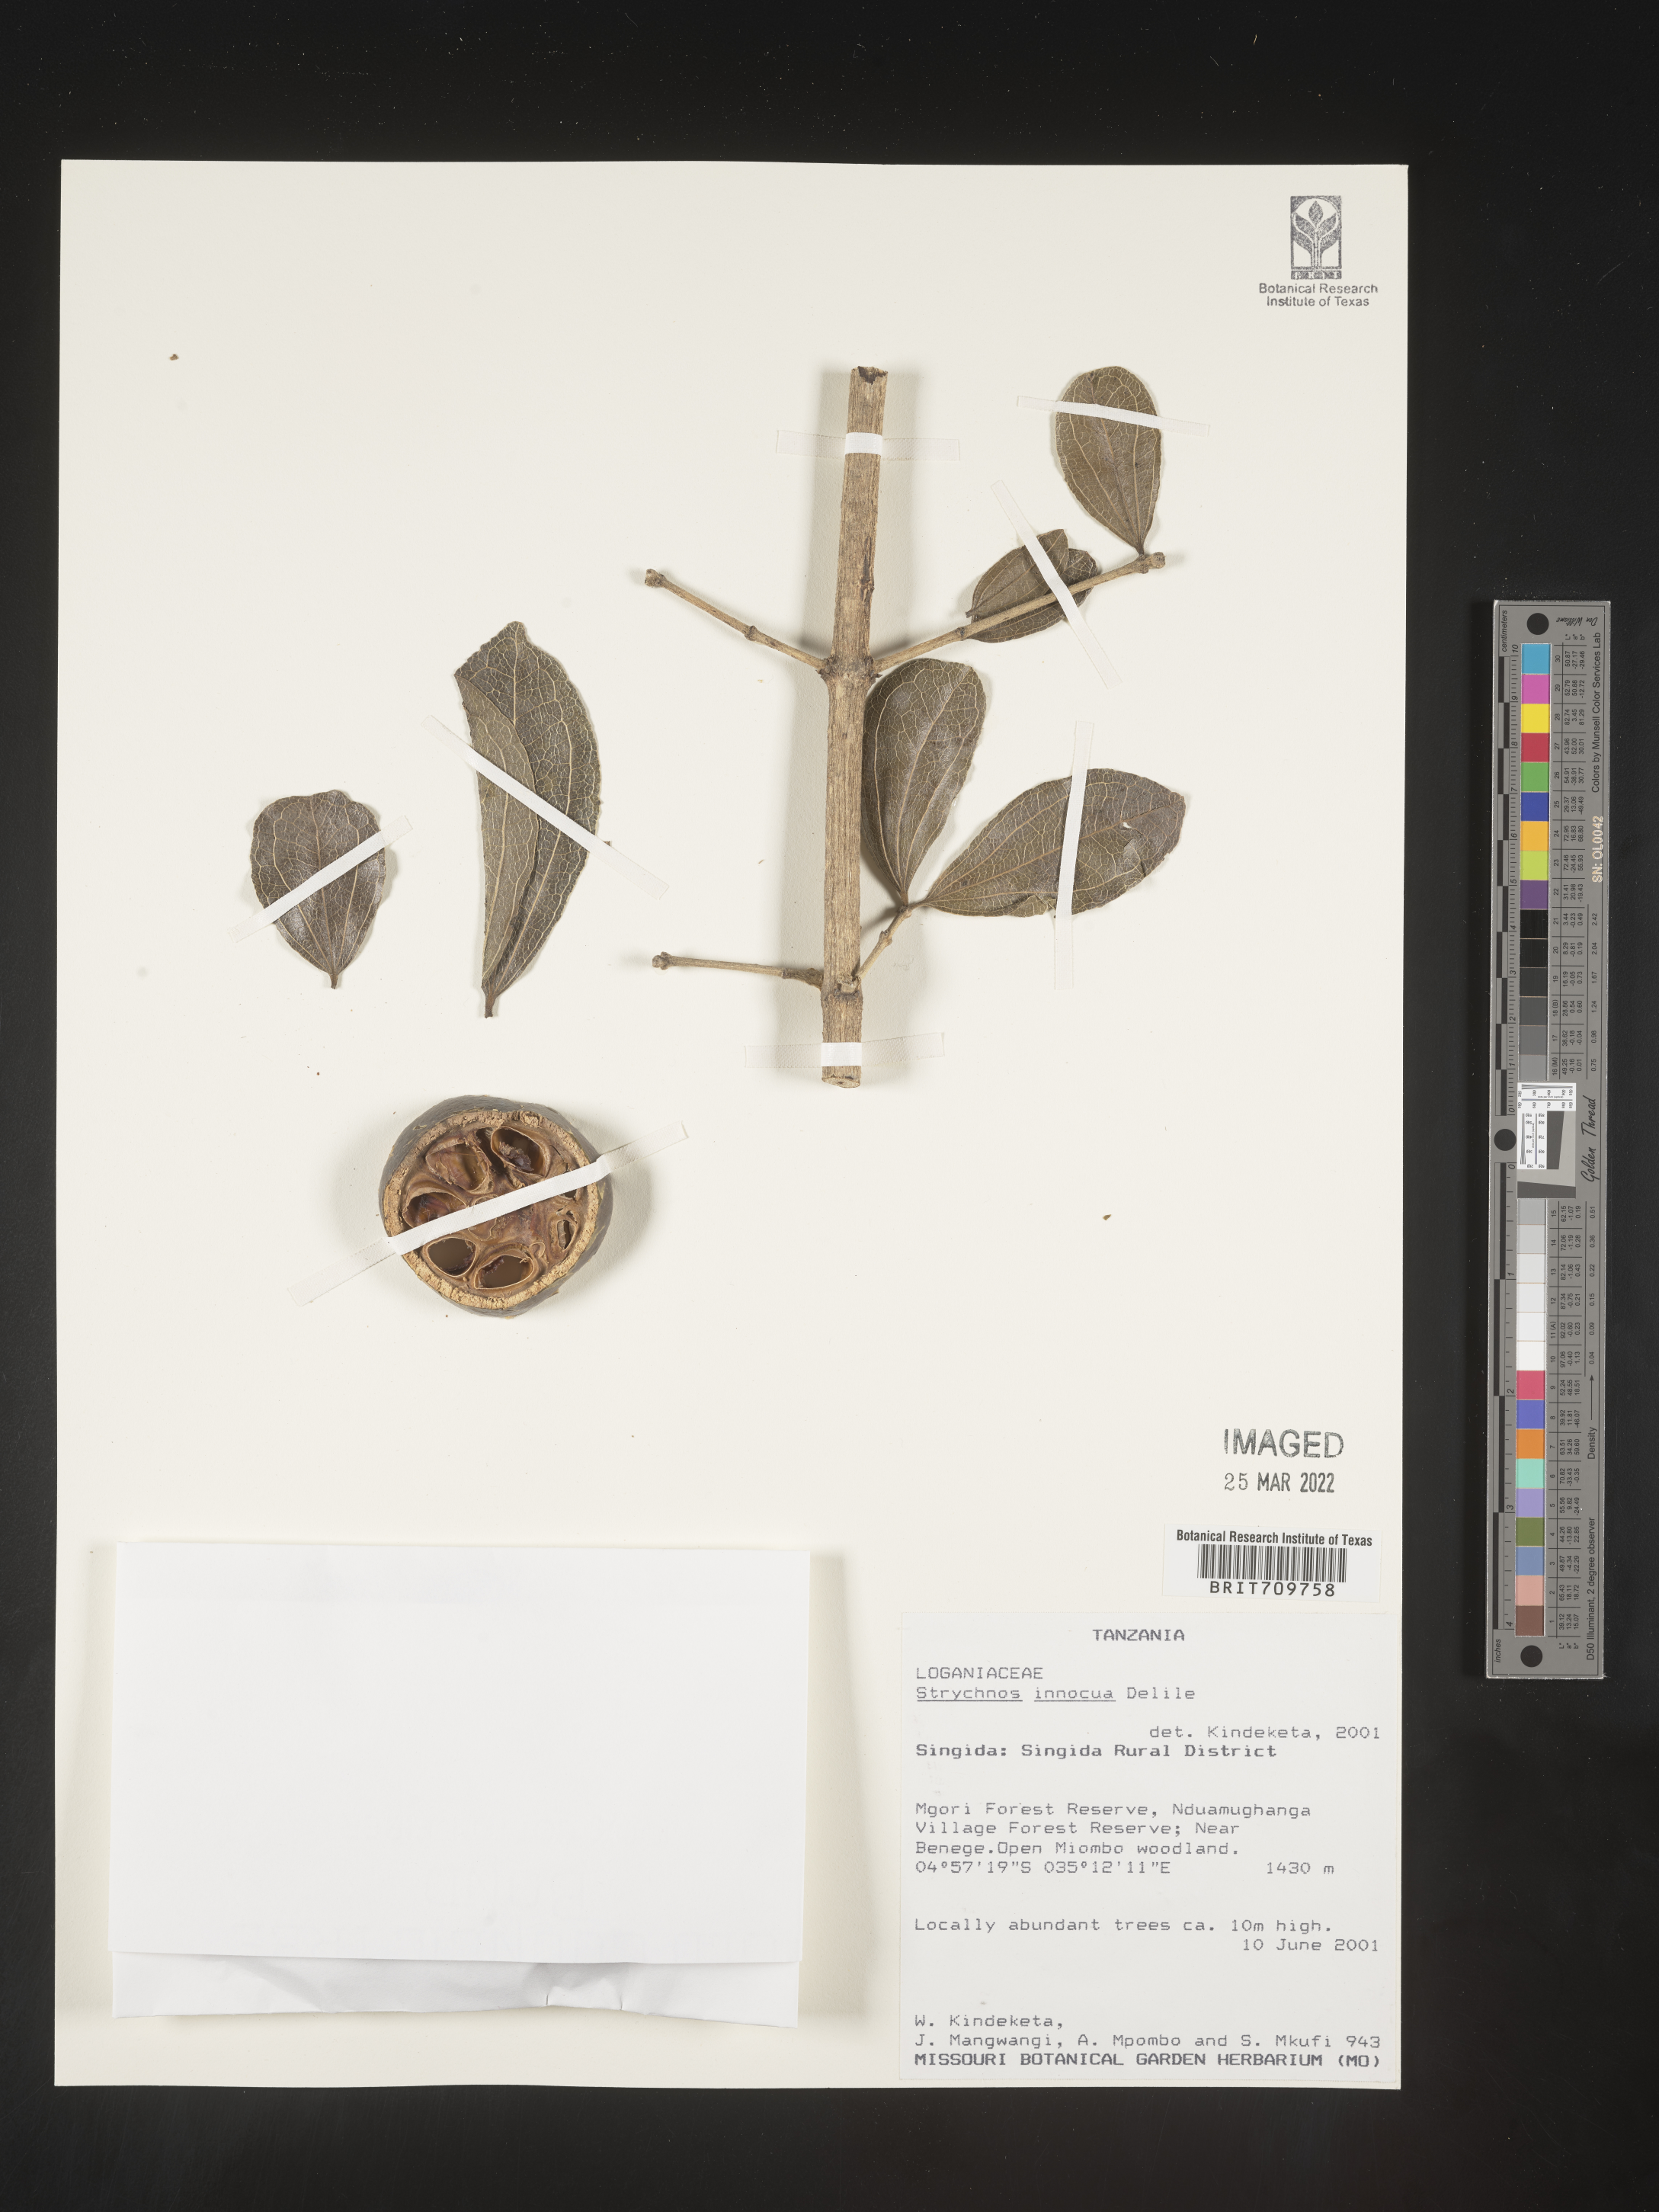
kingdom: Plantae
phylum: Tracheophyta
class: Magnoliopsida
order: Gentianales
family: Loganiaceae
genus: Strychnos
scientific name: Strychnos
